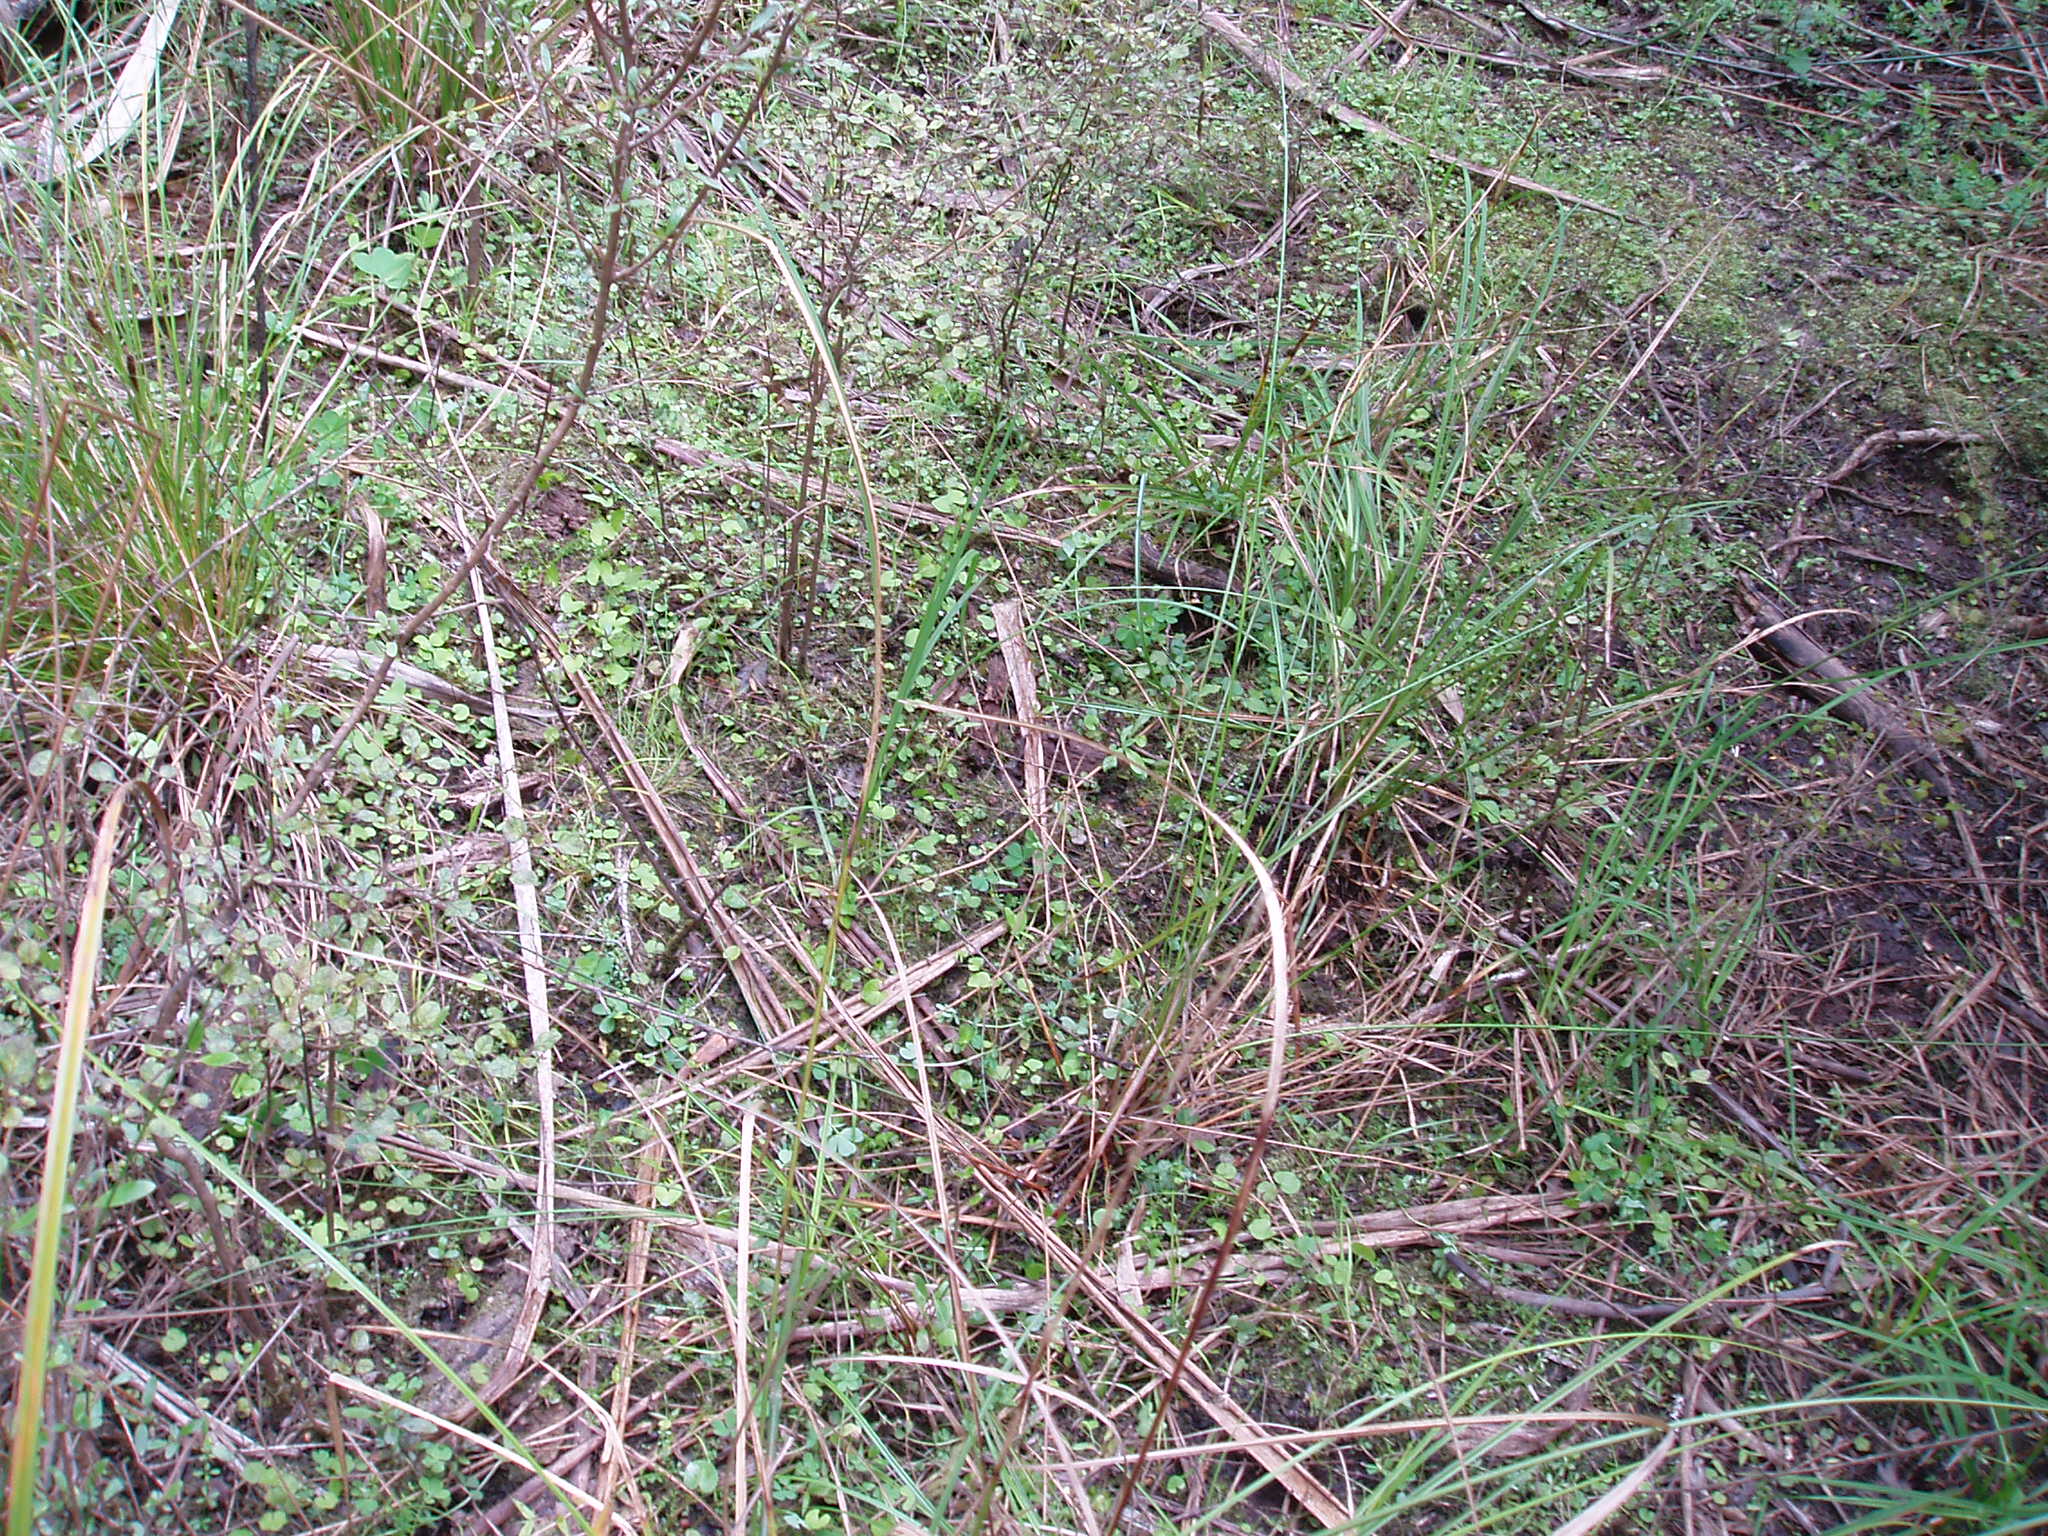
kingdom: Plantae
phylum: Tracheophyta
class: Magnoliopsida
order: Malpighiales
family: Violaceae
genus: Viola
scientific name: Viola lyallii
